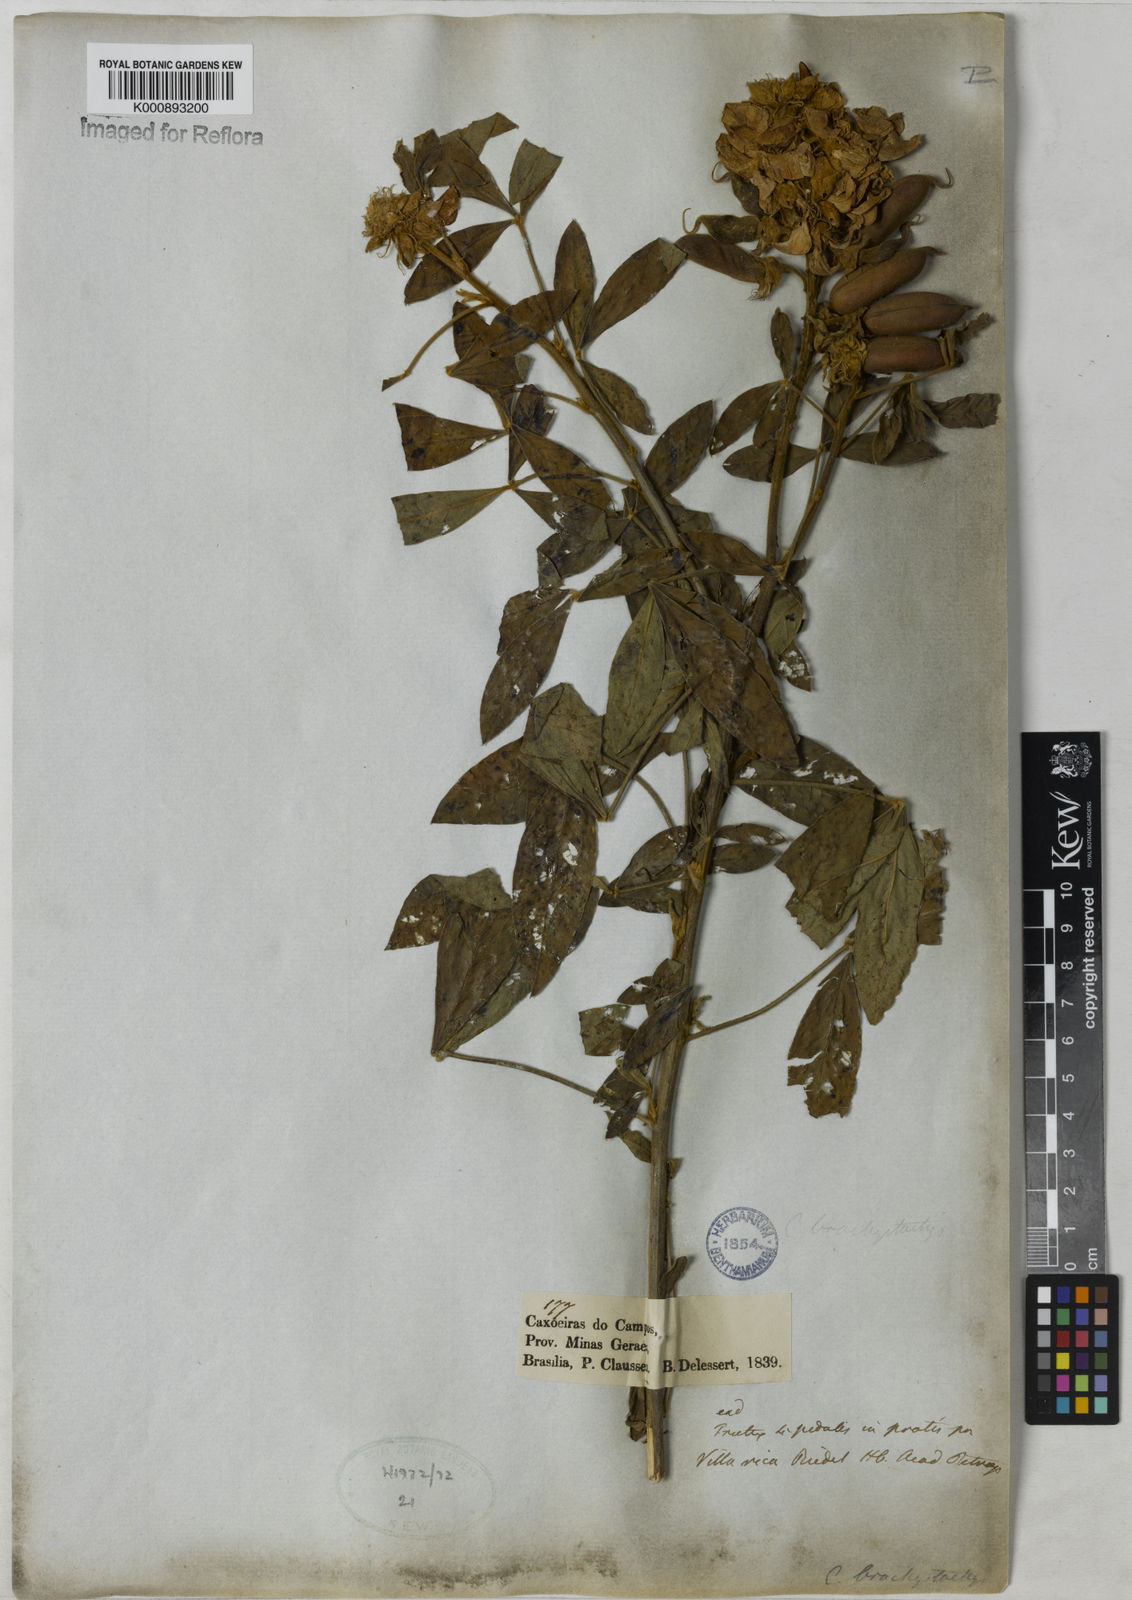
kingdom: Plantae
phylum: Tracheophyta
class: Magnoliopsida
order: Fabales
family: Fabaceae
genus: Crotalaria
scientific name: Crotalaria micans
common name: Caracas rattlebox
